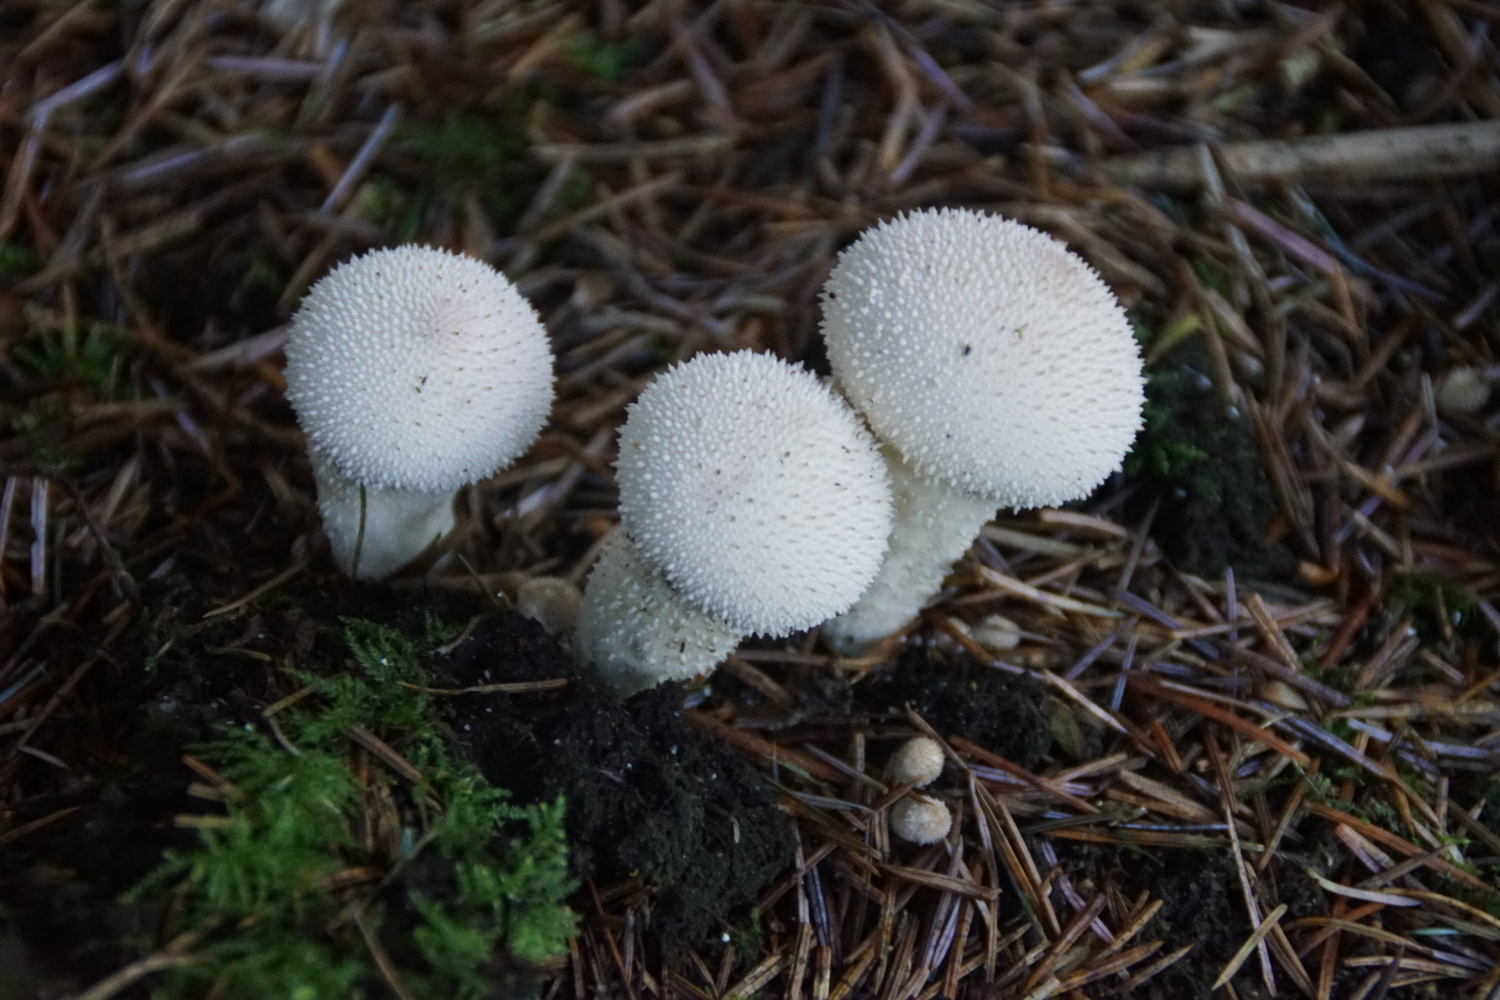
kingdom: Fungi
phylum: Basidiomycota
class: Agaricomycetes
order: Agaricales
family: Lycoperdaceae
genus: Lycoperdon
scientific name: Lycoperdon perlatum
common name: krystal-støvbold
